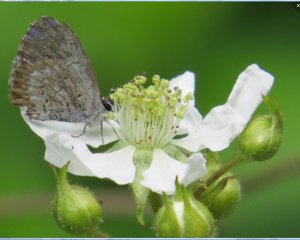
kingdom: Animalia
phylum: Arthropoda
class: Insecta
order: Lepidoptera
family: Lycaenidae
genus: Celastrina
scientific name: Celastrina lucia
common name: Northern Spring Azure
